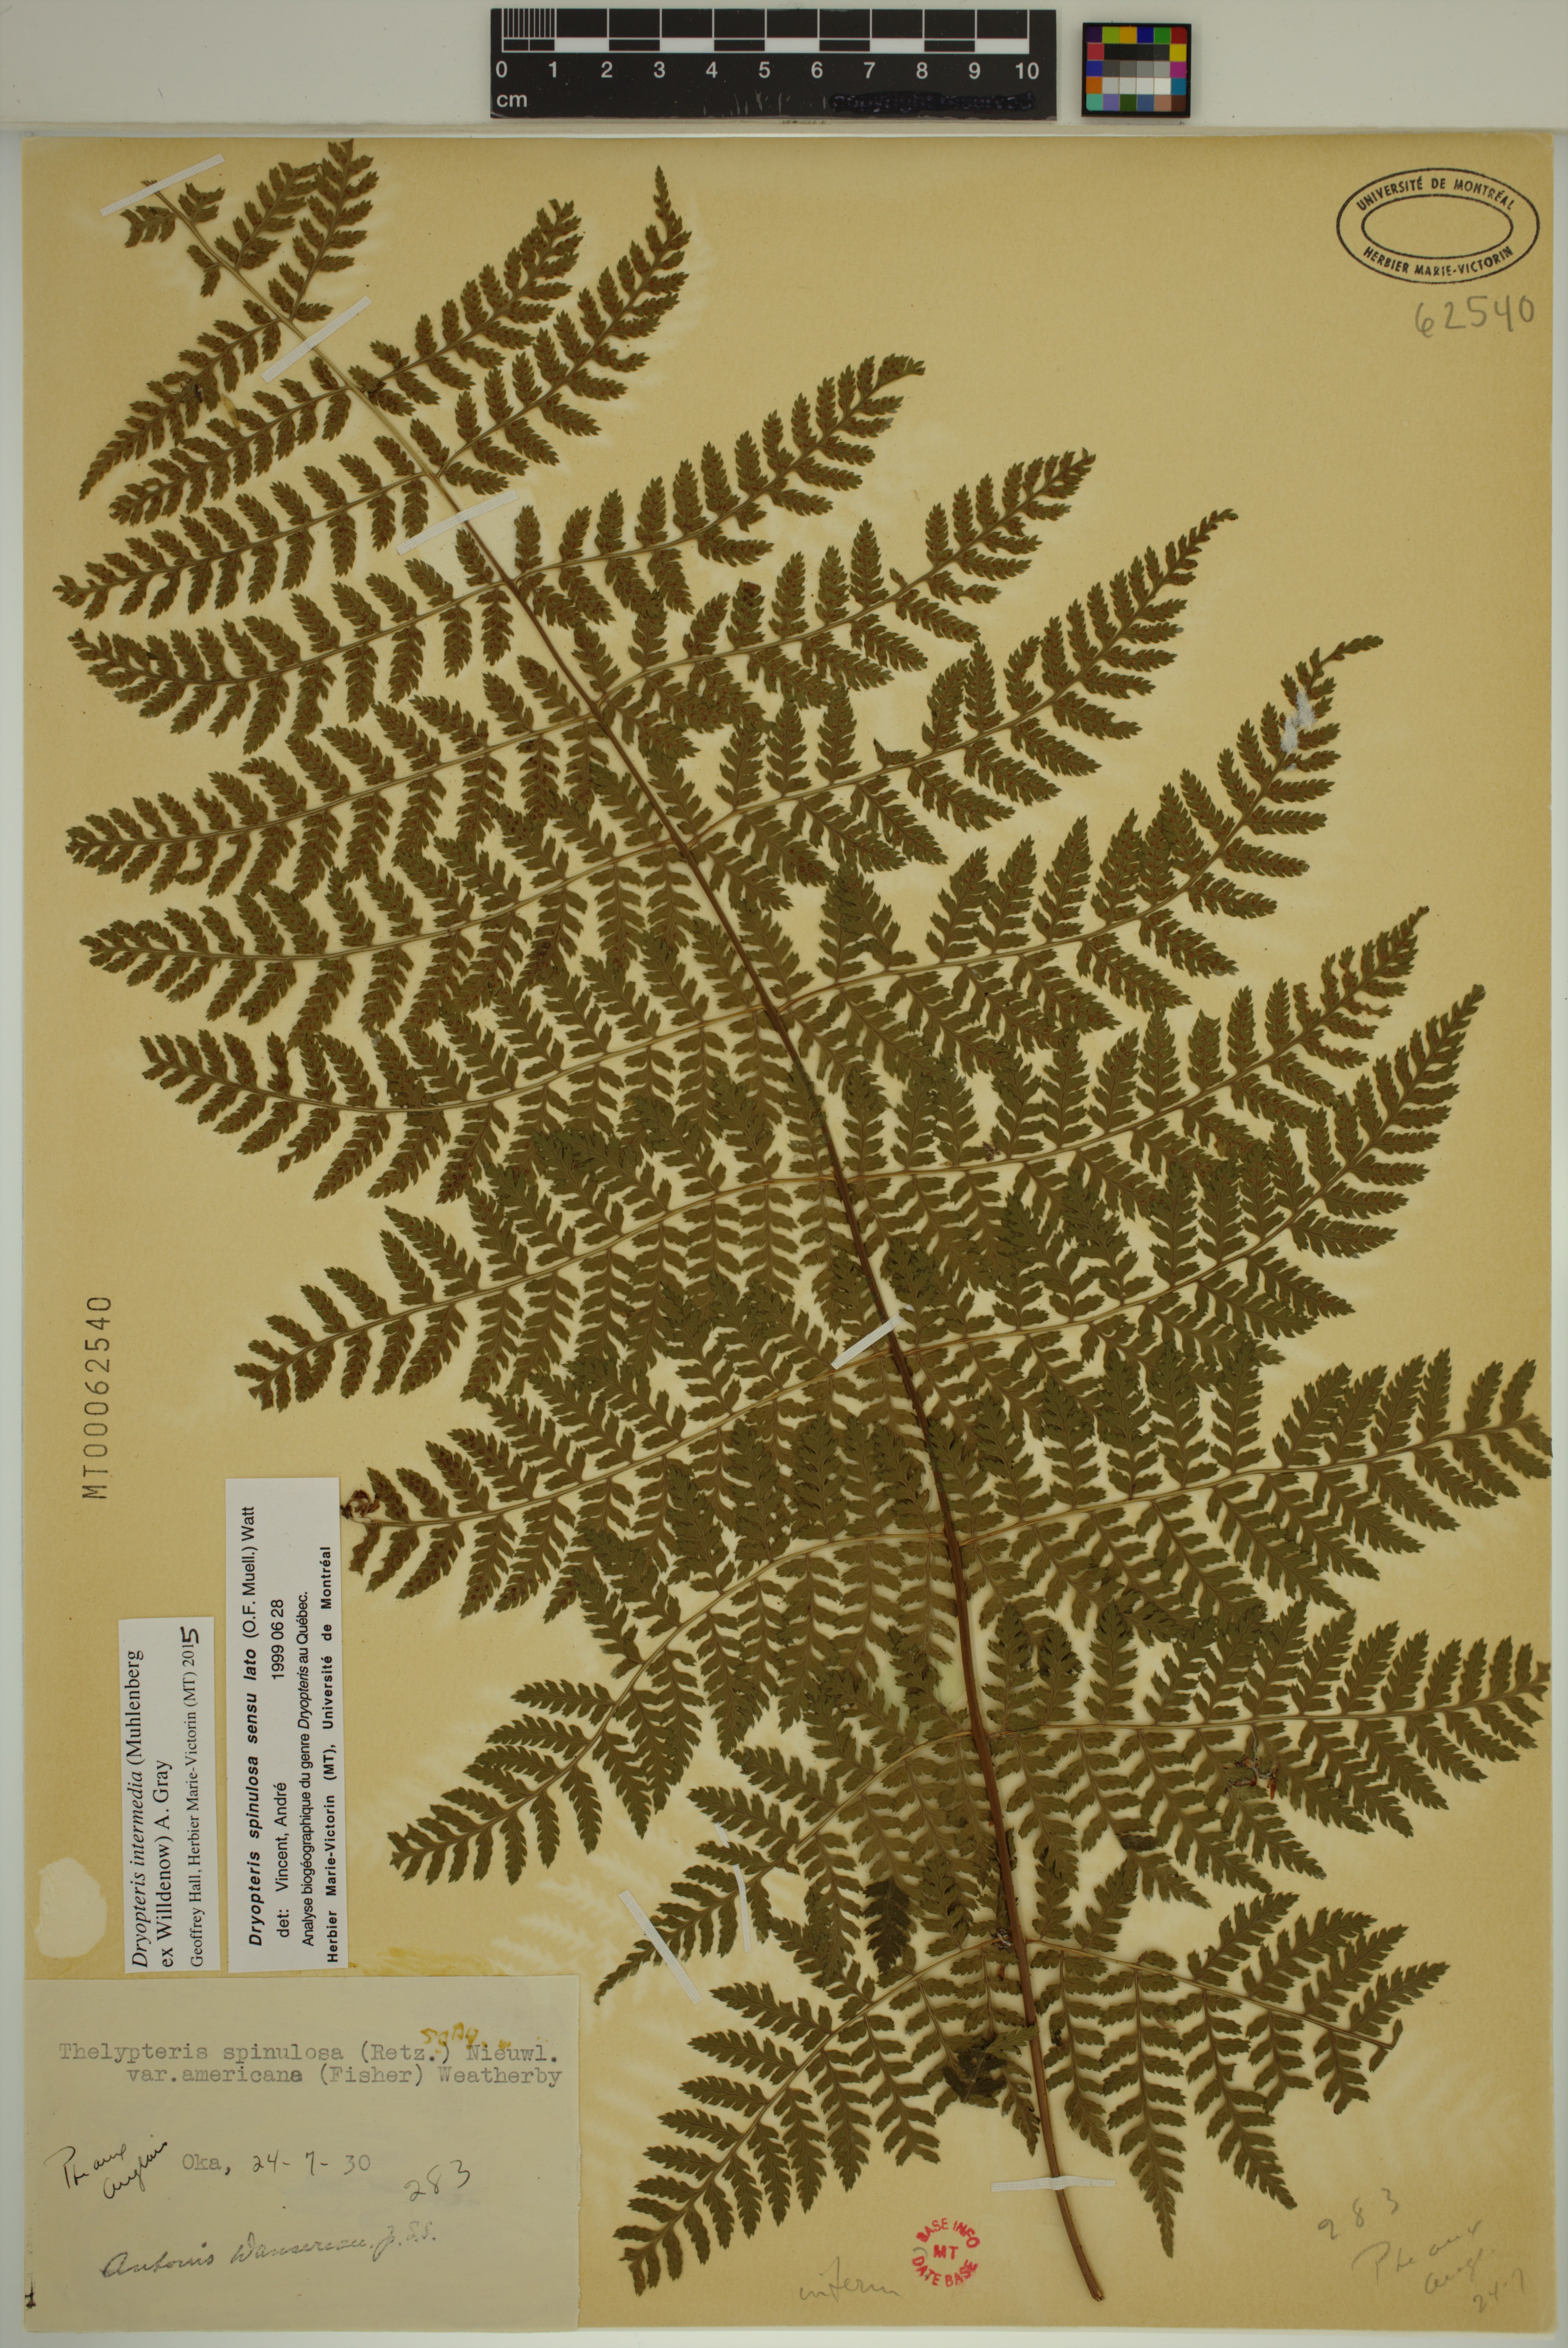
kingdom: Plantae
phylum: Tracheophyta
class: Polypodiopsida
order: Polypodiales
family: Dryopteridaceae
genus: Dryopteris
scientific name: Dryopteris intermedia
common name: Evergreen wood fern
